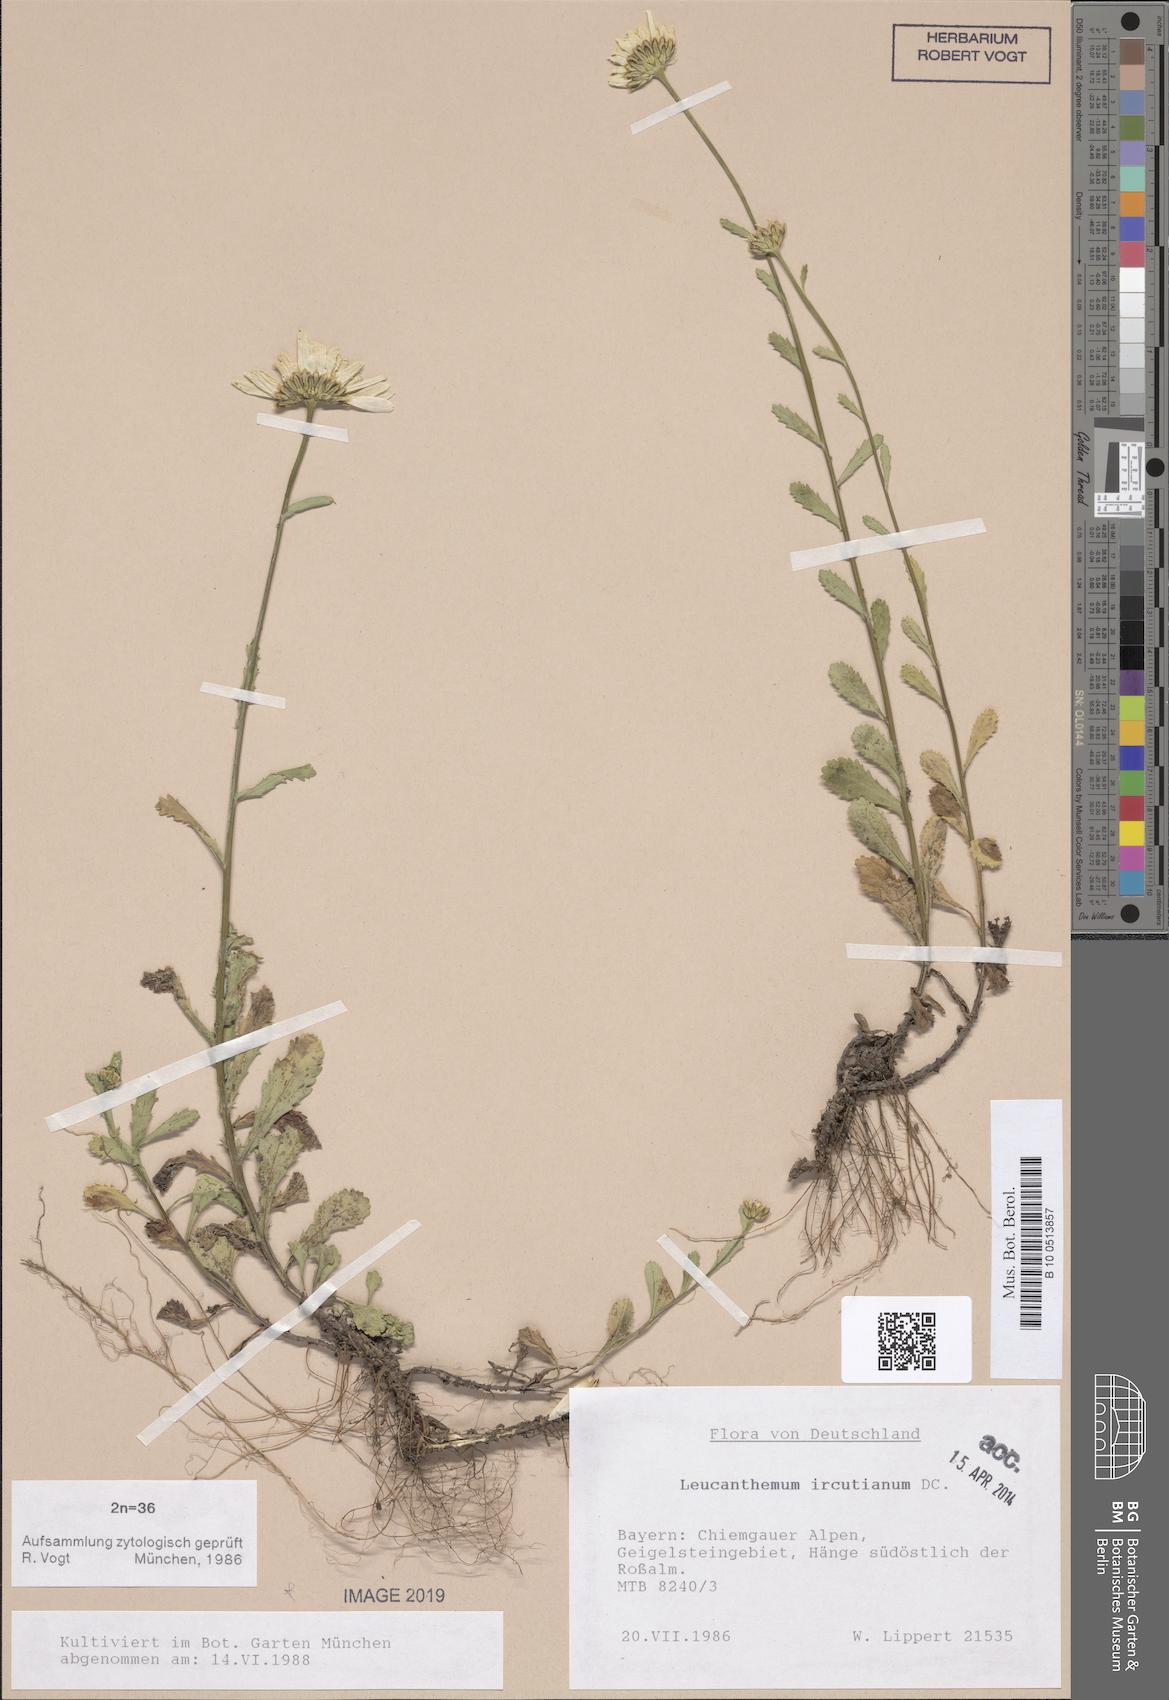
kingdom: Plantae
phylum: Tracheophyta
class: Magnoliopsida
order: Asterales
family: Asteraceae
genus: Leucanthemum
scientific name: Leucanthemum ircutianum
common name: Daisy
